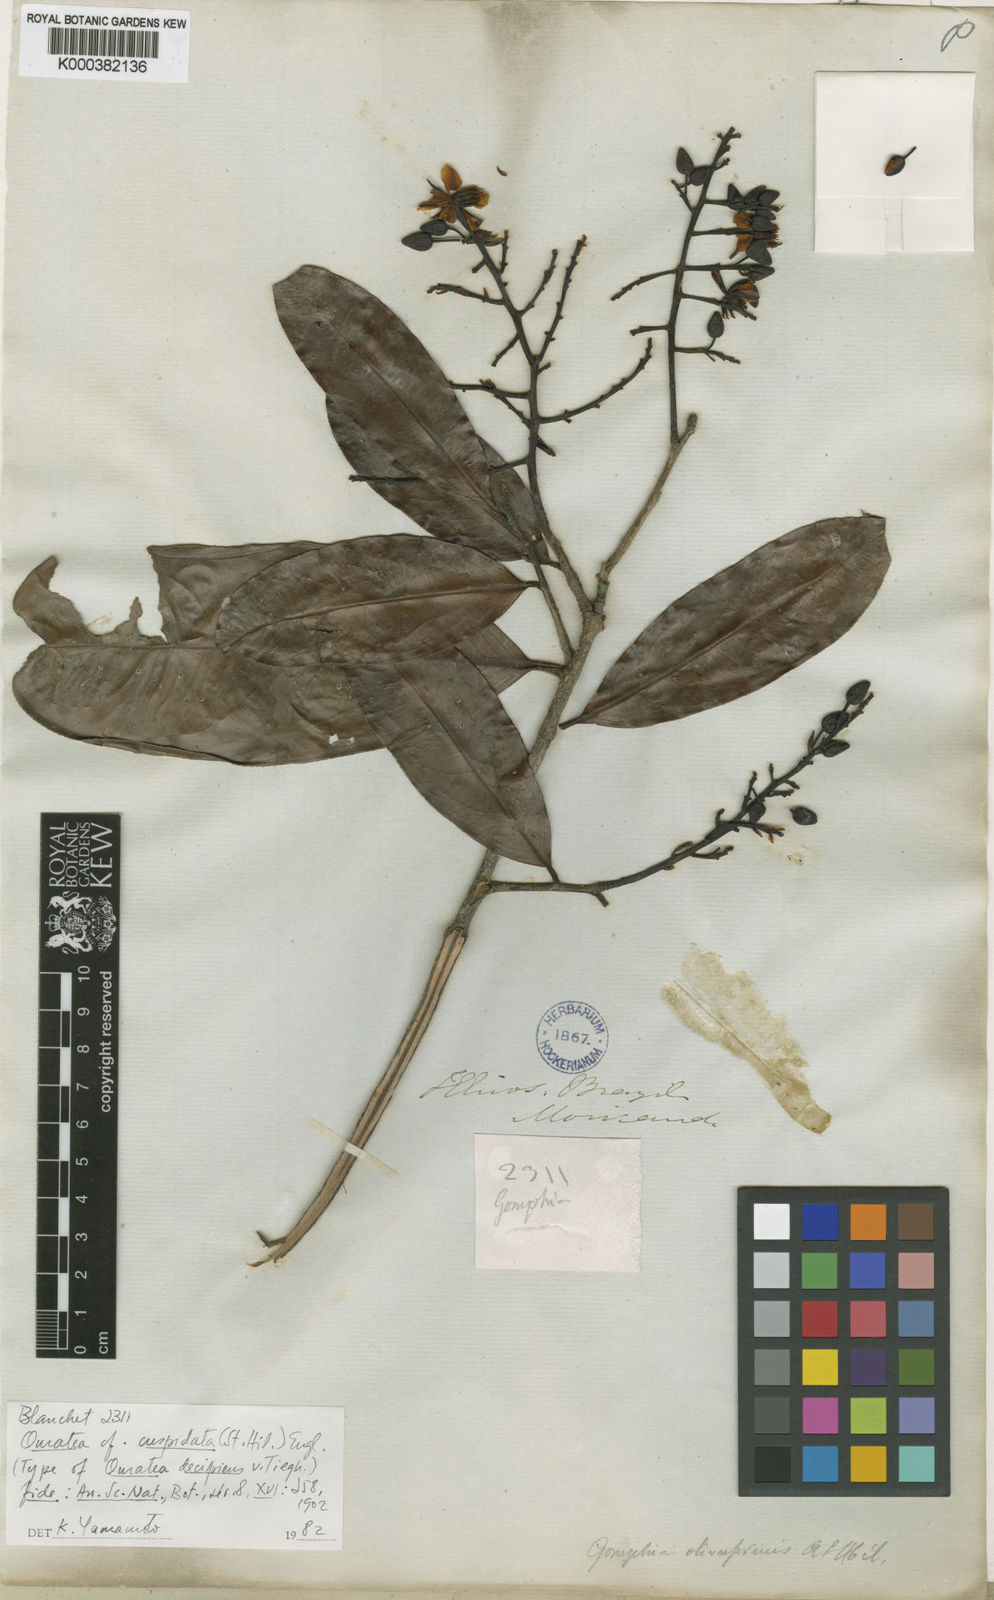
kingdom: Plantae
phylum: Tracheophyta
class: Magnoliopsida
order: Malpighiales
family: Ochnaceae
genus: Ouratea
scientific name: Ouratea cuspidata
